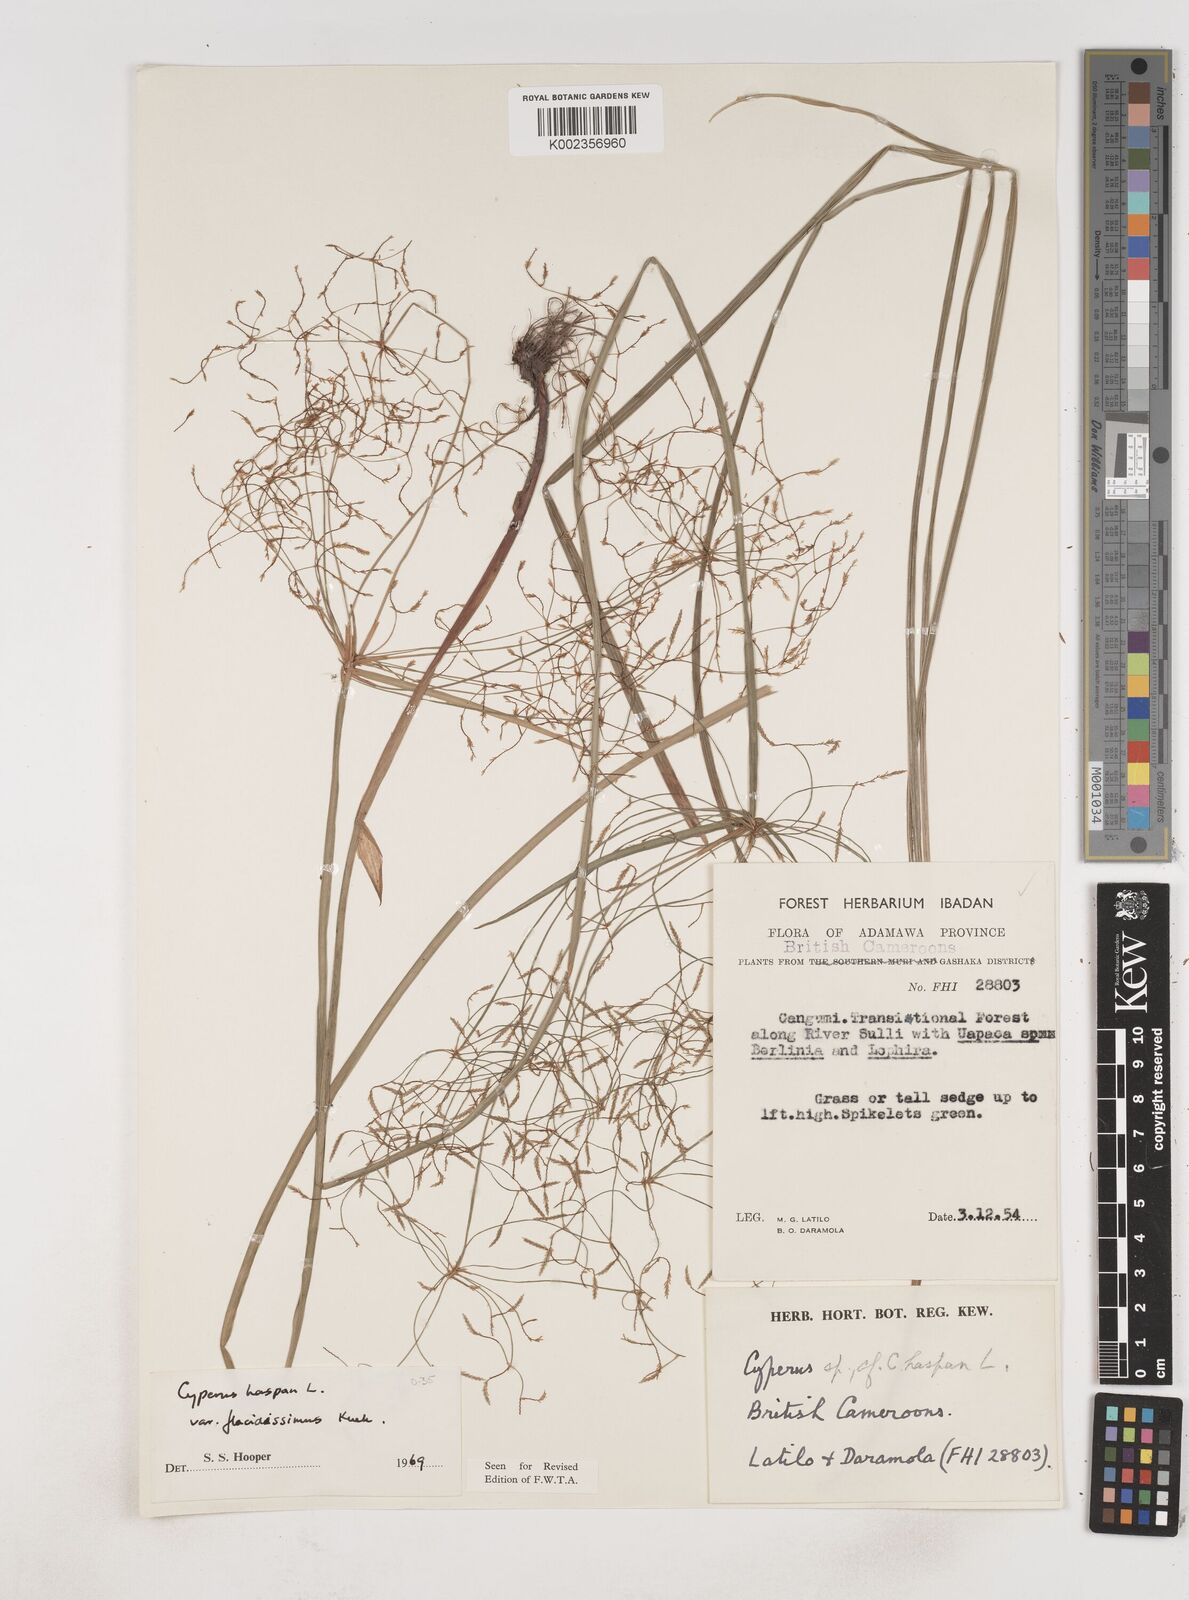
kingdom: Plantae
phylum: Tracheophyta
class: Liliopsida
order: Poales
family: Cyperaceae
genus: Cyperus
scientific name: Cyperus haspan
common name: Haspan flatsedge
